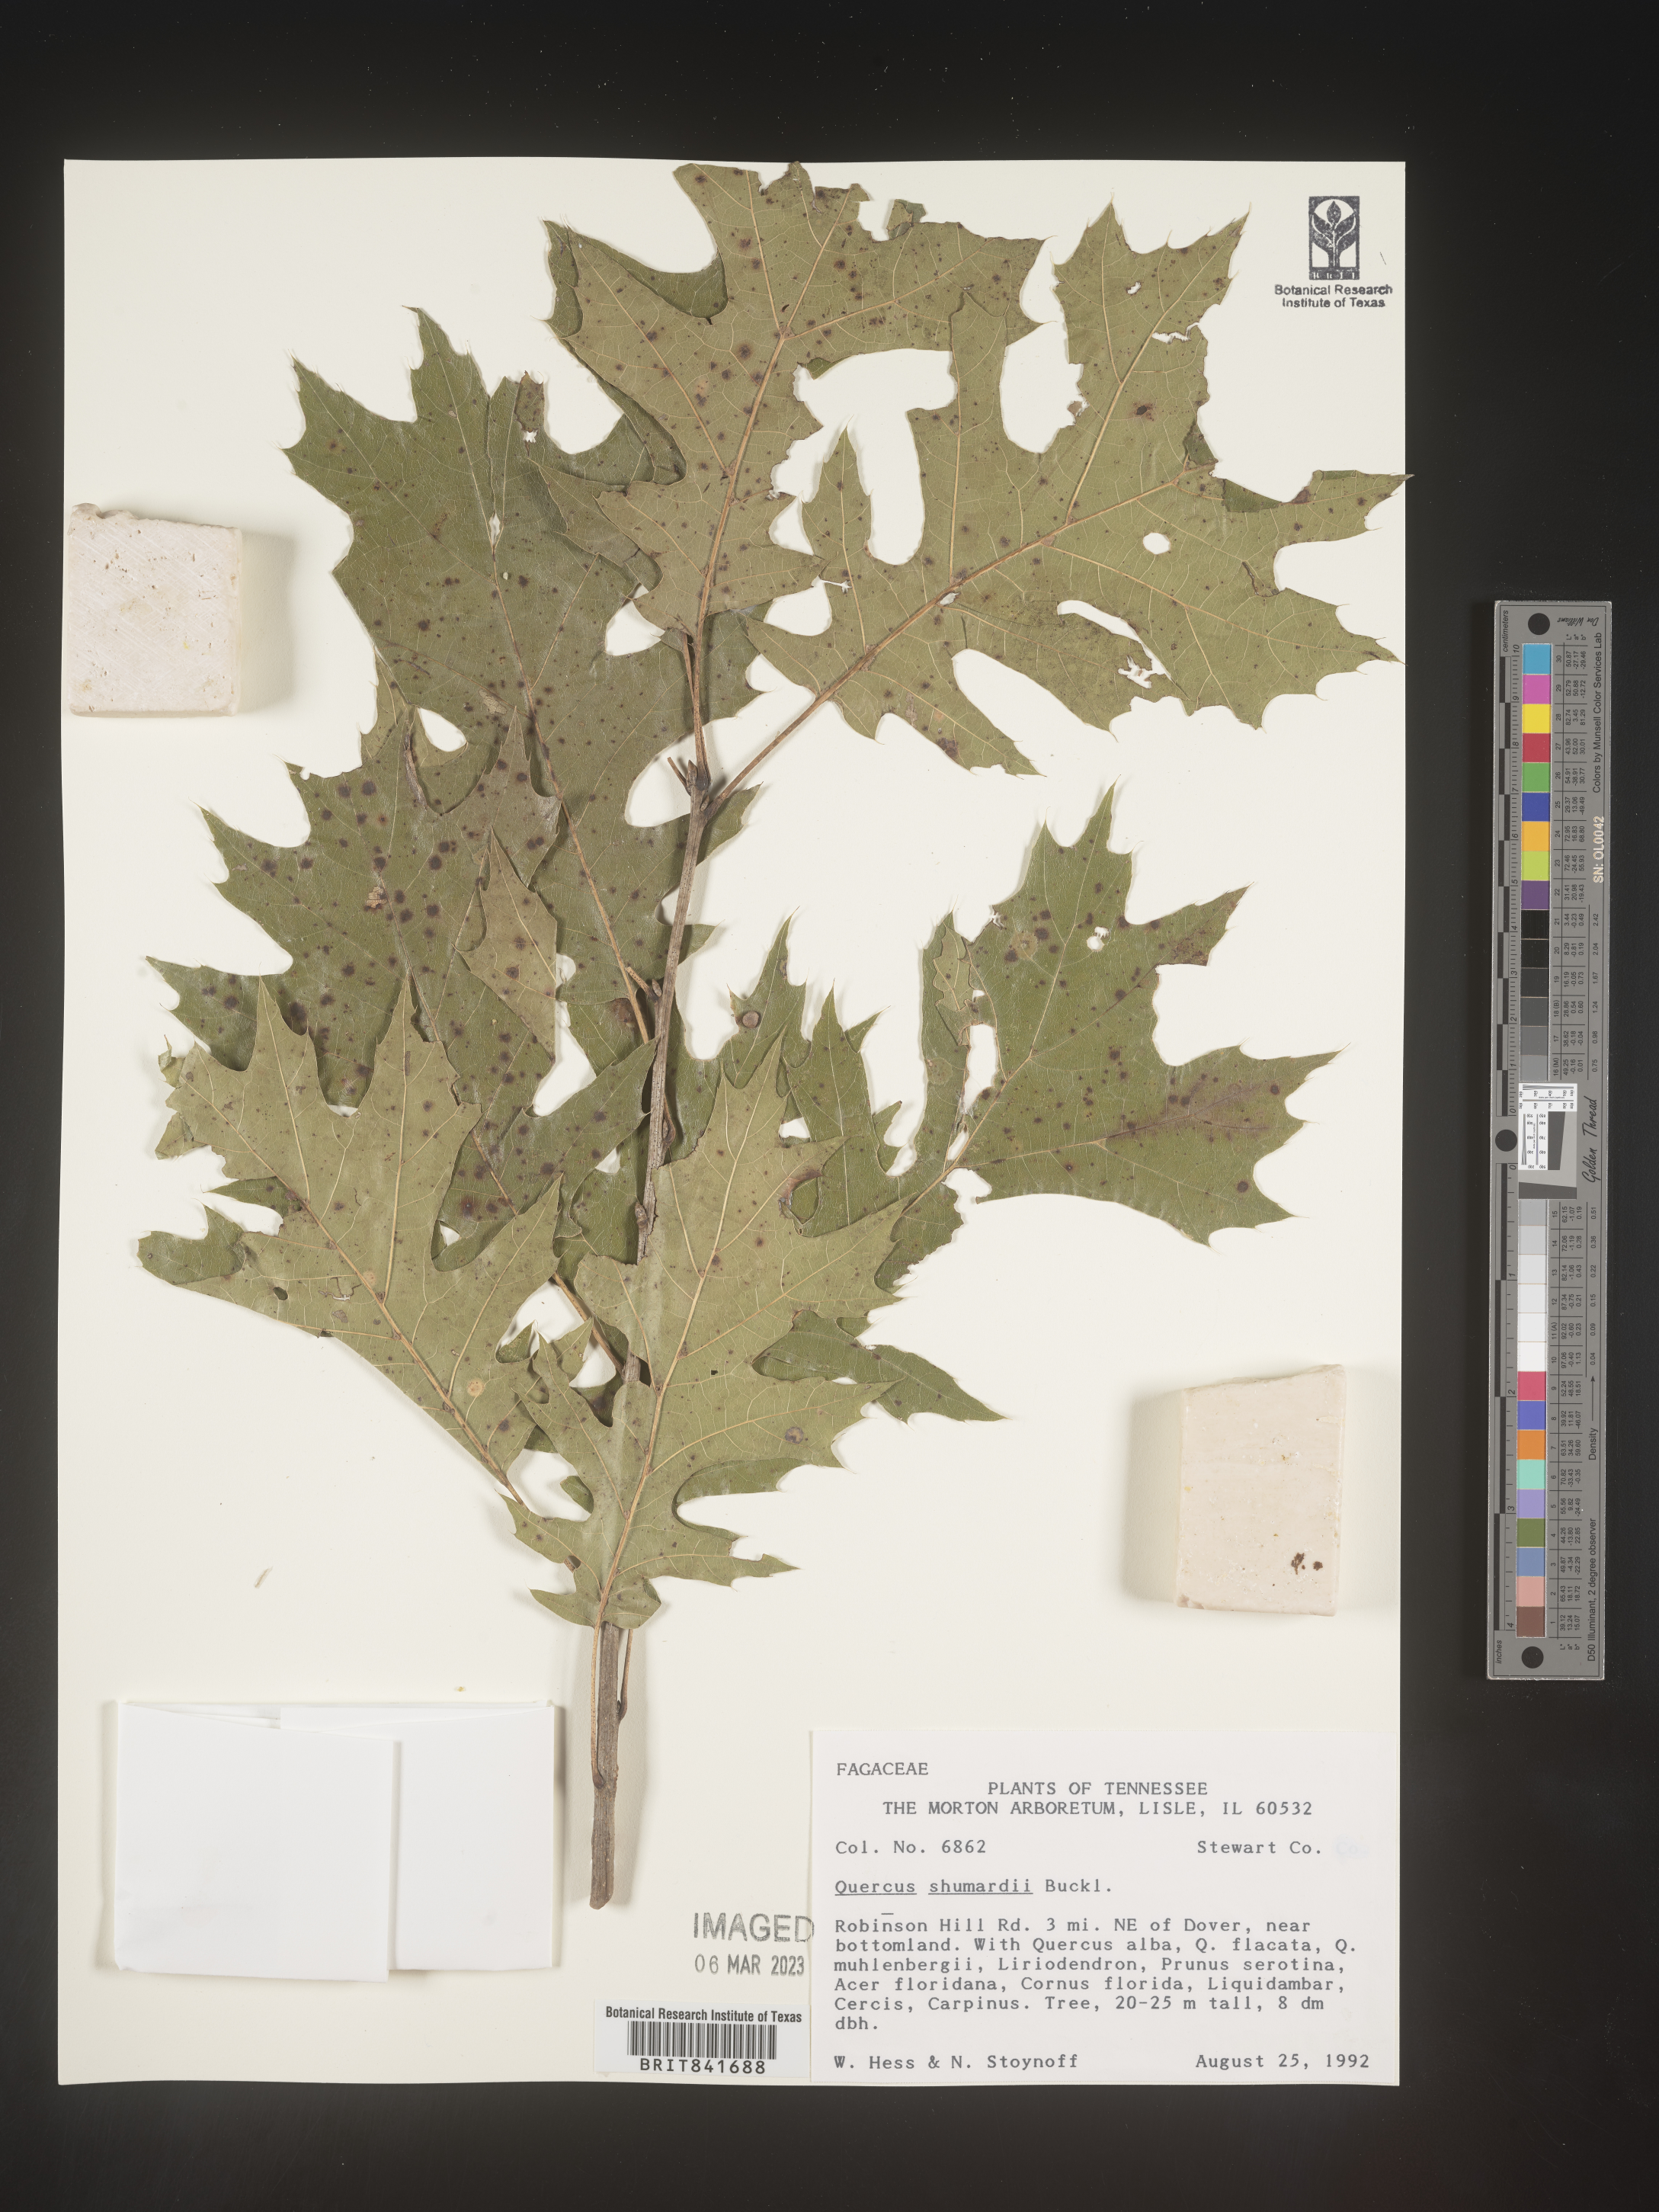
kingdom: Plantae
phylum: Tracheophyta
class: Magnoliopsida
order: Fagales
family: Fagaceae
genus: Quercus
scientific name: Quercus shumardii
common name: Shumard oak
